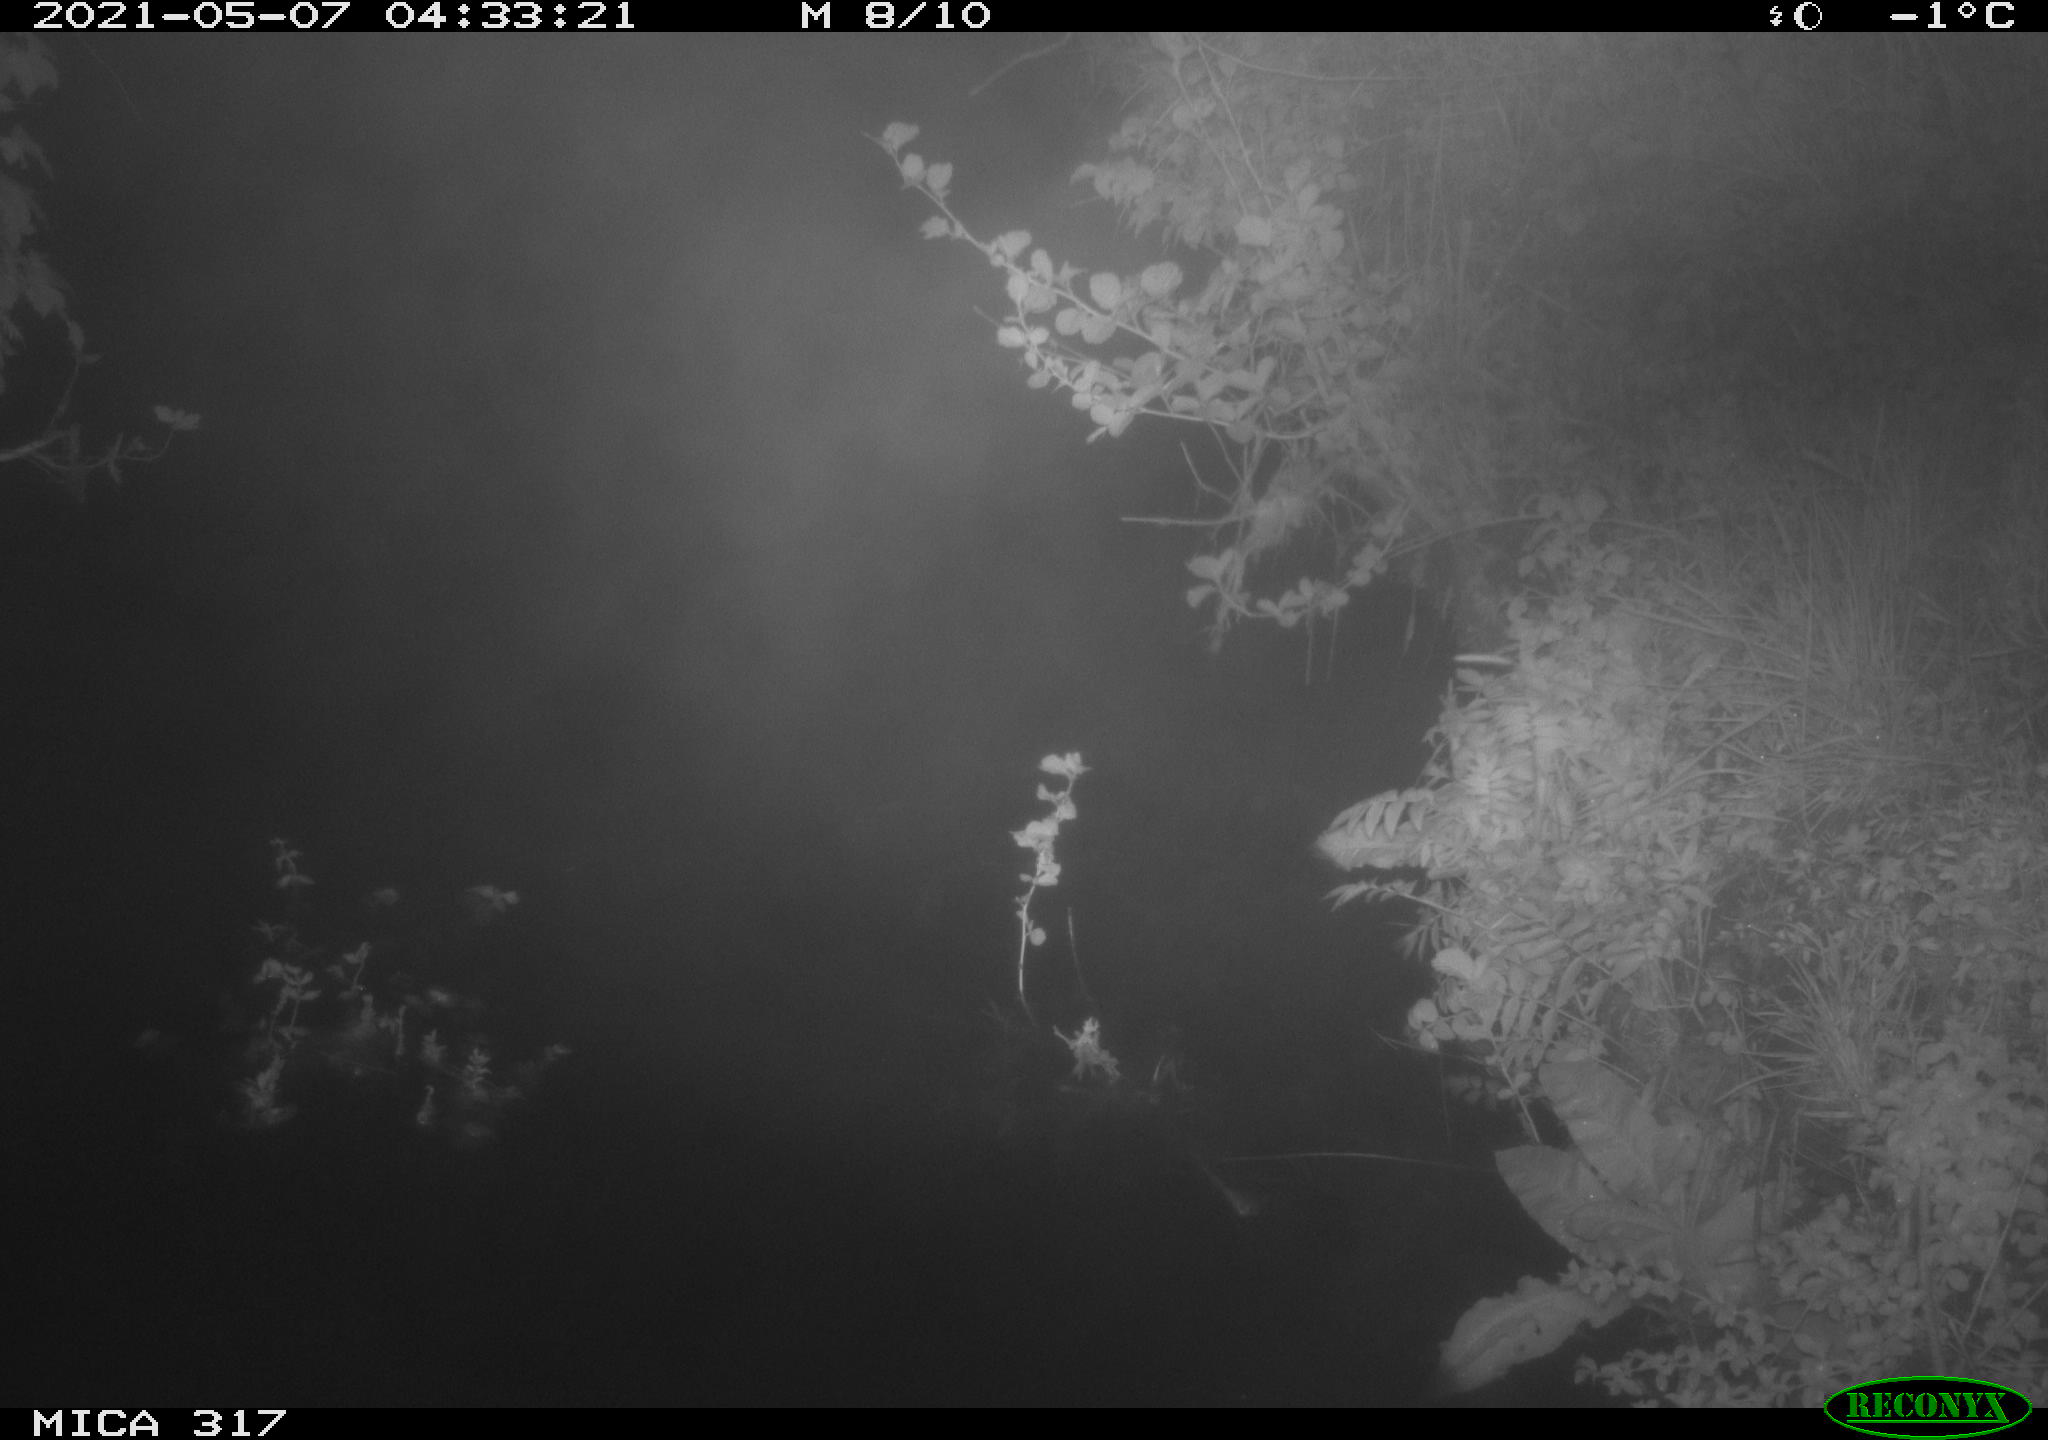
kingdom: Animalia
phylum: Chordata
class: Aves
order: Anseriformes
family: Anatidae
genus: Anas
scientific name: Anas
